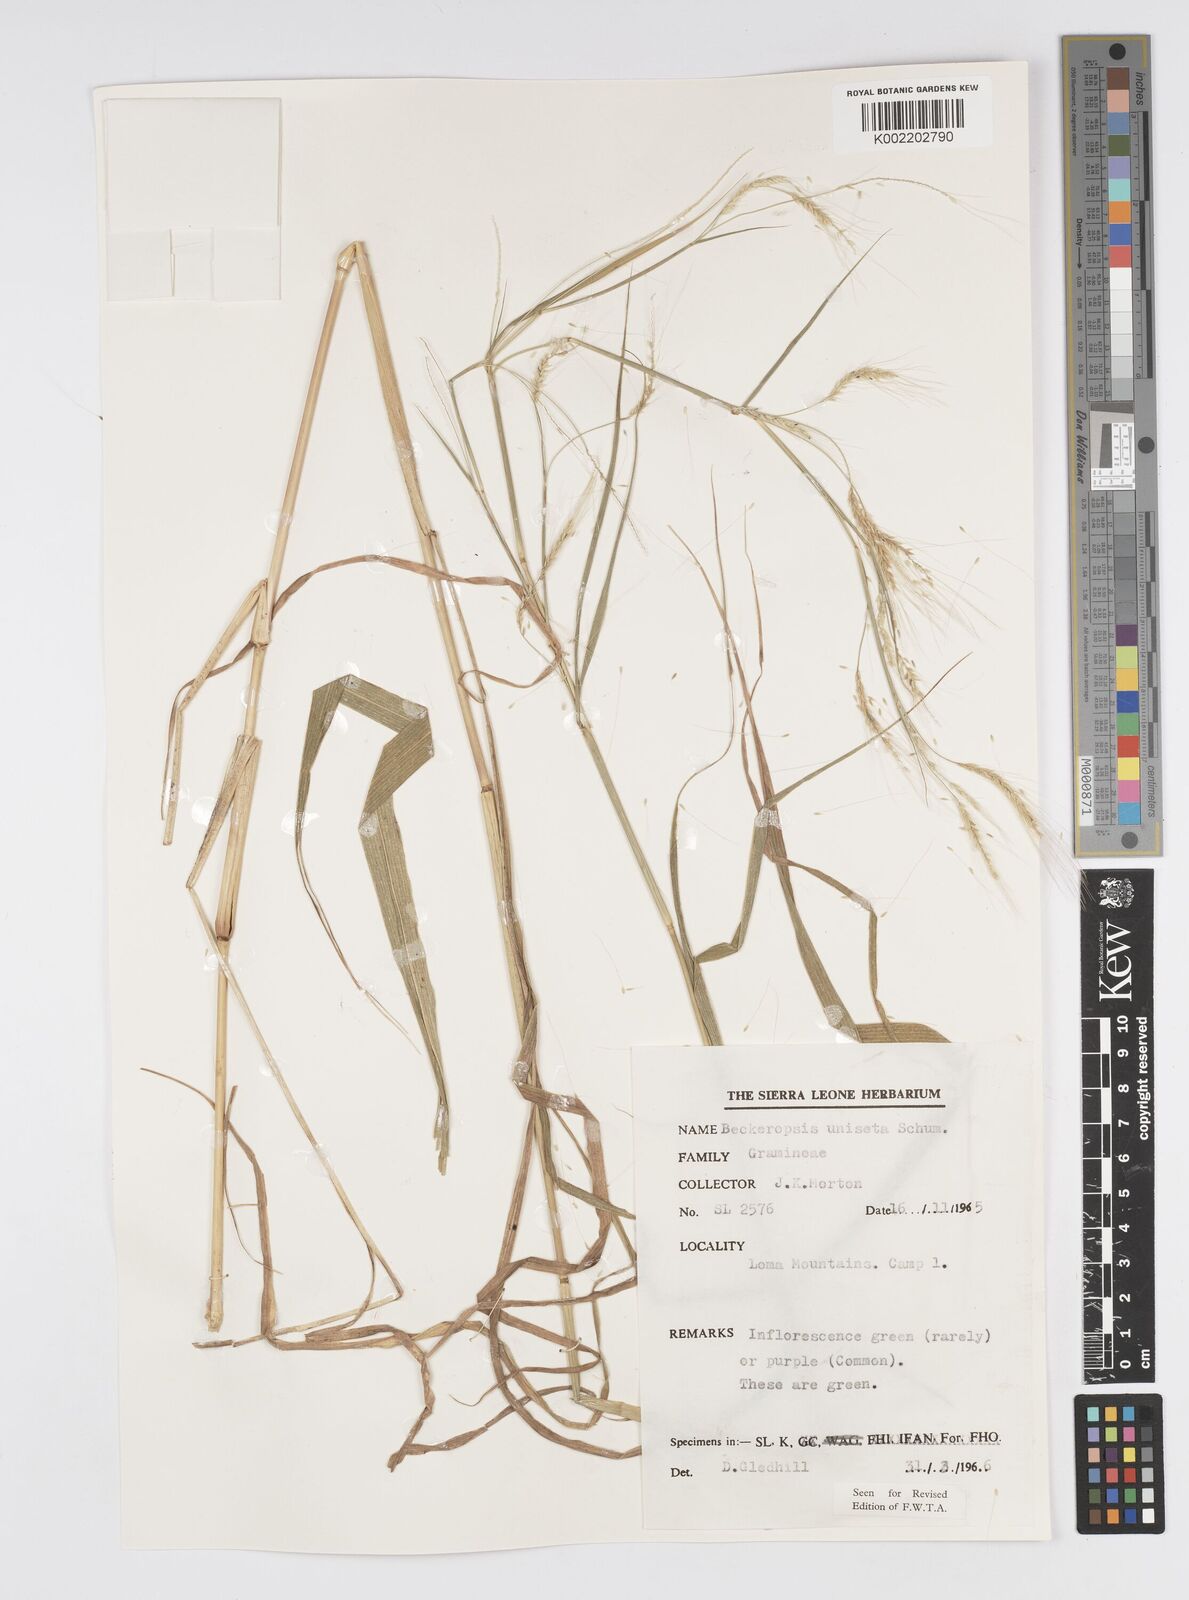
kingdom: Plantae
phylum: Tracheophyta
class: Liliopsida
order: Poales
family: Poaceae
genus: Cenchrus
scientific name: Cenchrus unisetus
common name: Natal grass
